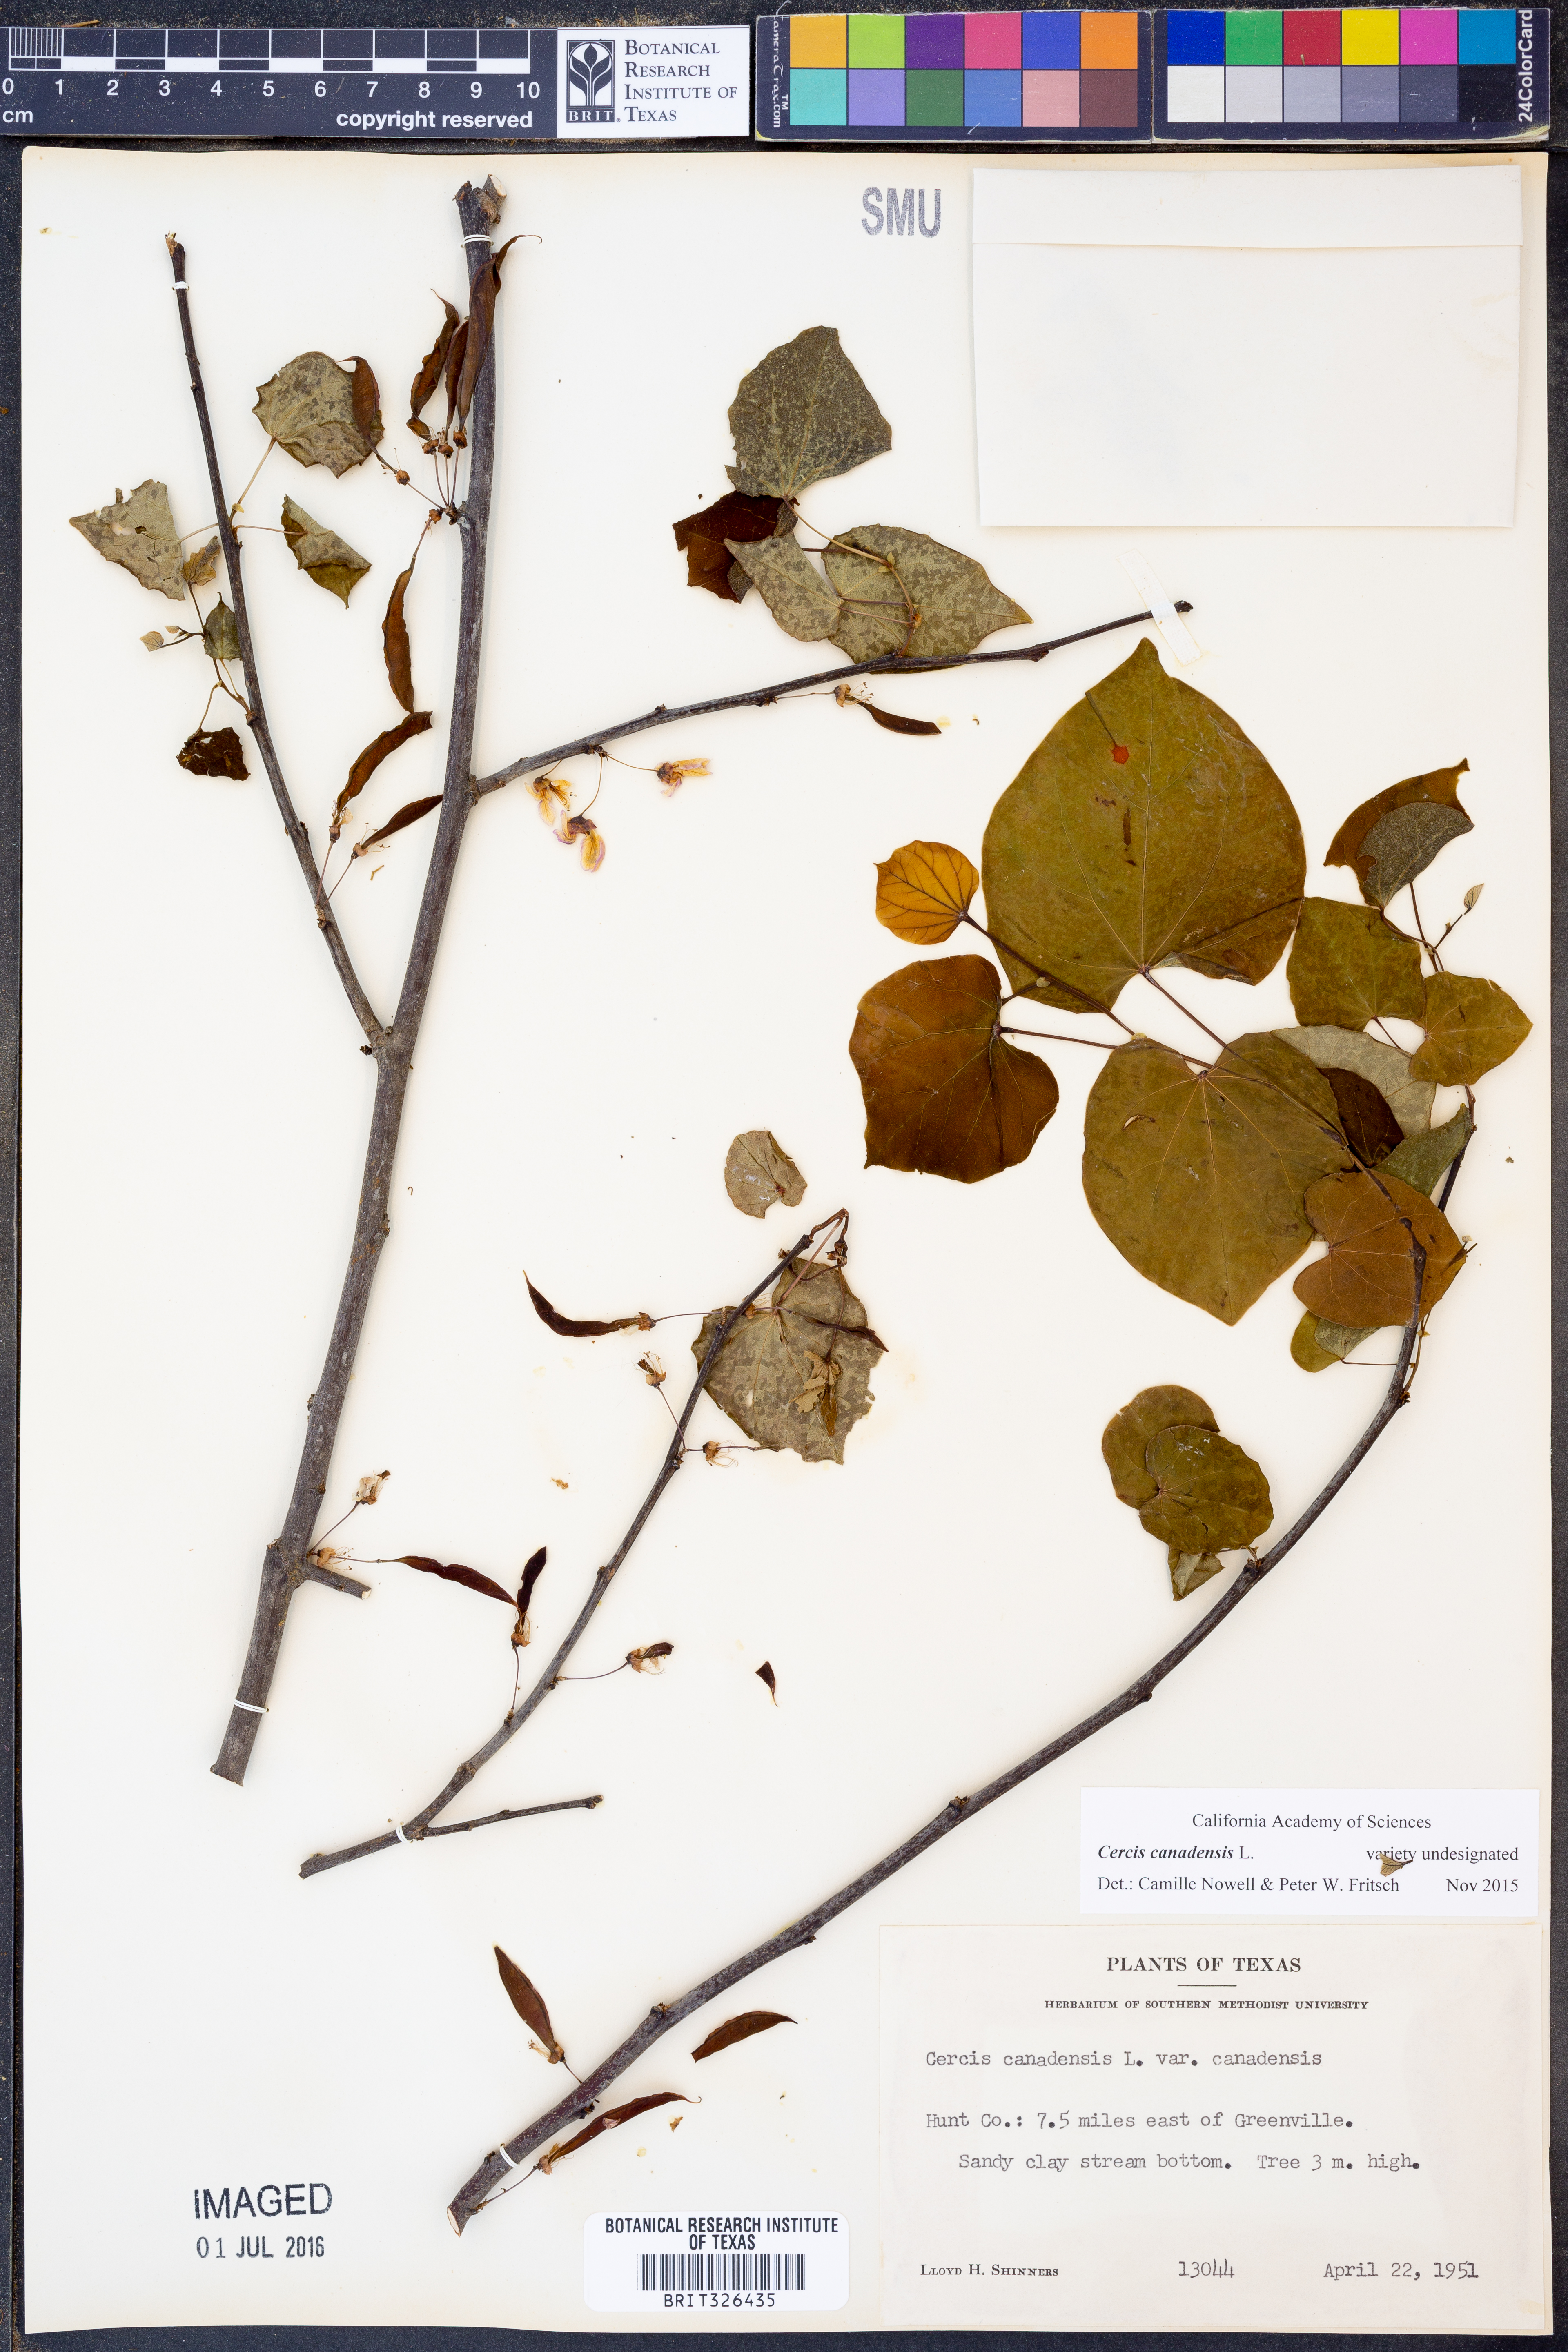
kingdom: Plantae
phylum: Tracheophyta
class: Magnoliopsida
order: Fabales
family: Fabaceae
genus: Cercis
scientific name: Cercis canadensis
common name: Eastern redbud
